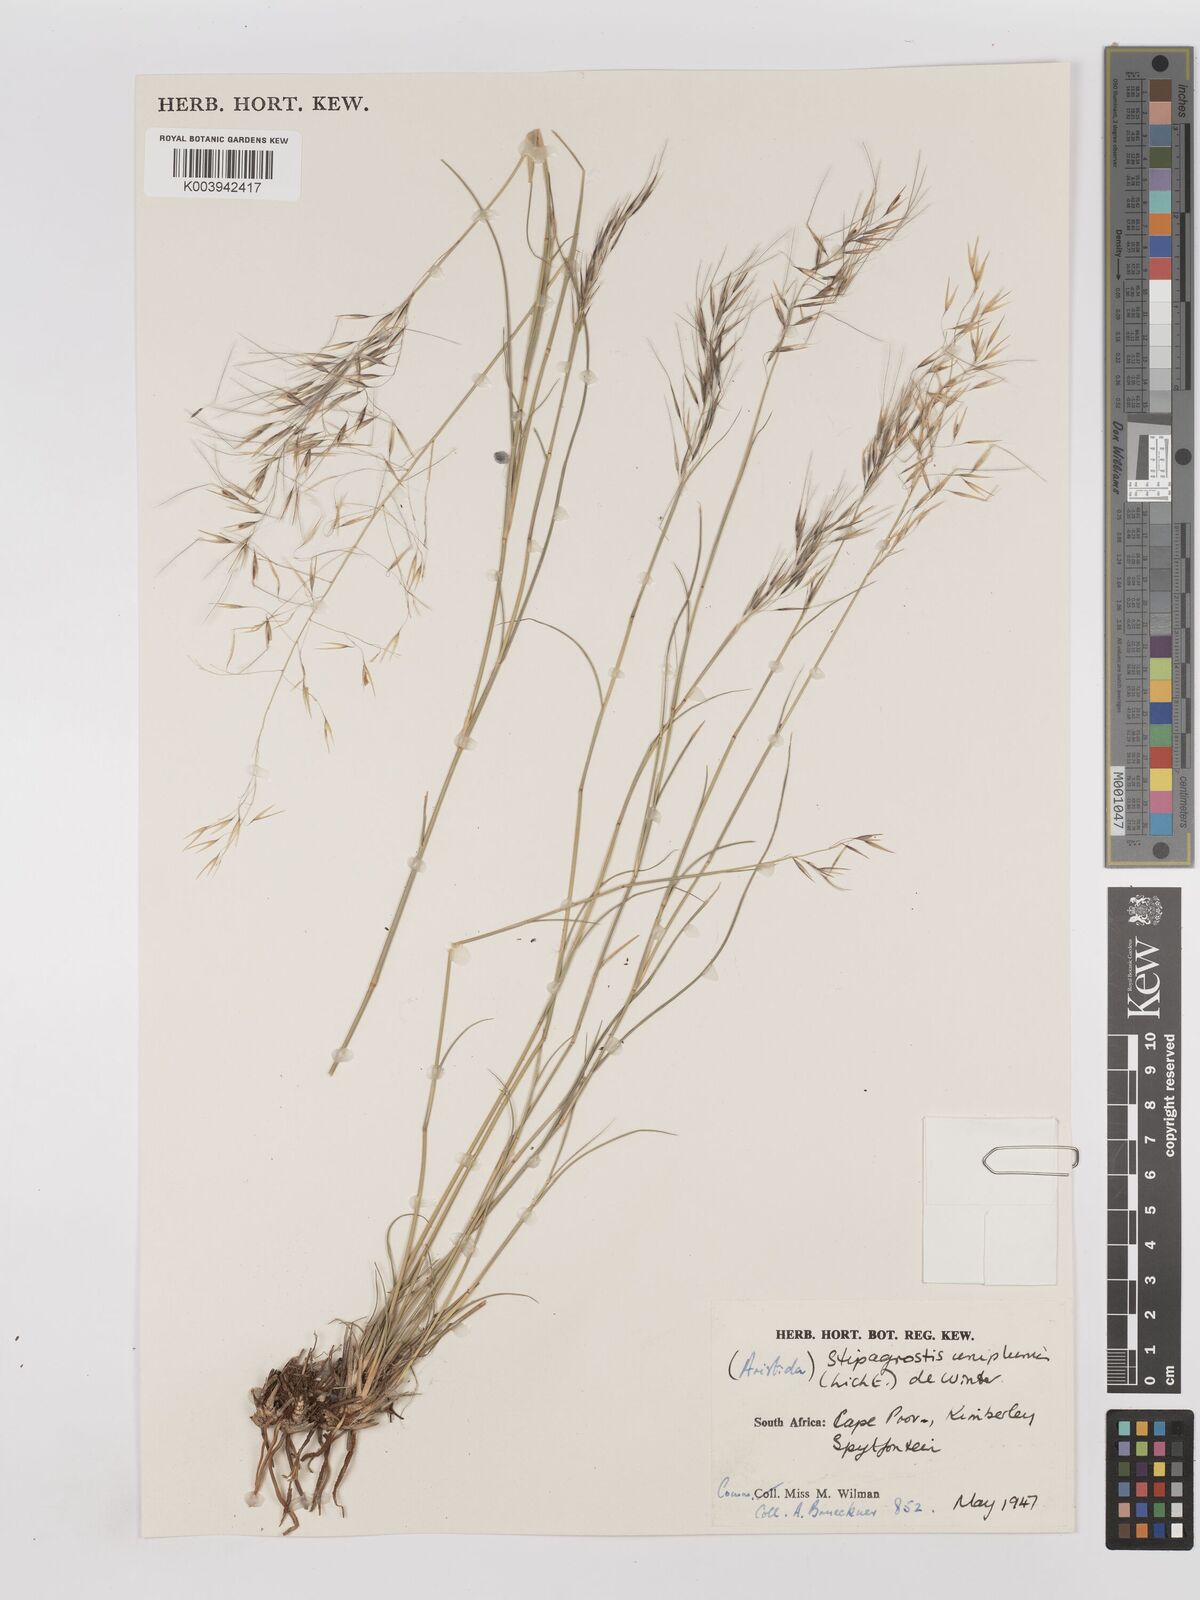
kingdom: Plantae
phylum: Tracheophyta
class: Liliopsida
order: Poales
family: Poaceae
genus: Stipagrostis
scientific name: Stipagrostis uniplumis
